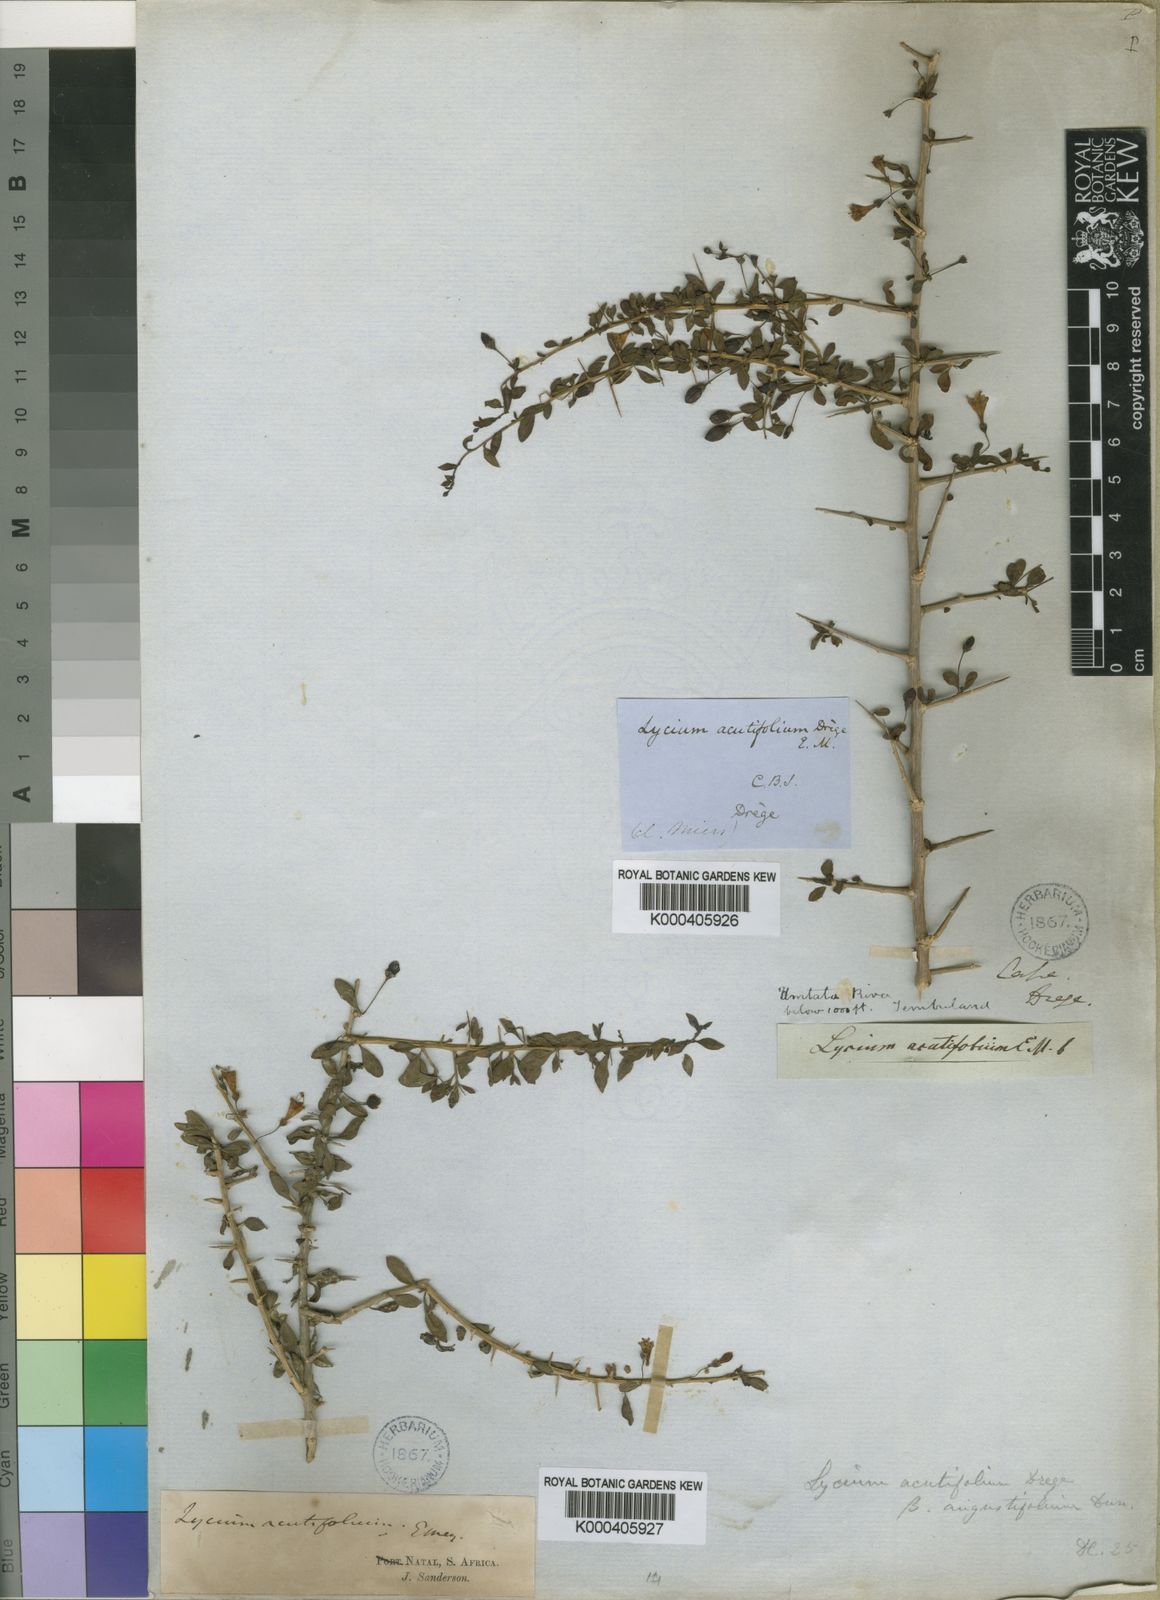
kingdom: Plantae
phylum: Tracheophyta
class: Magnoliopsida
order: Solanales
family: Solanaceae
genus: Lycium
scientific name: Lycium acutifolium
